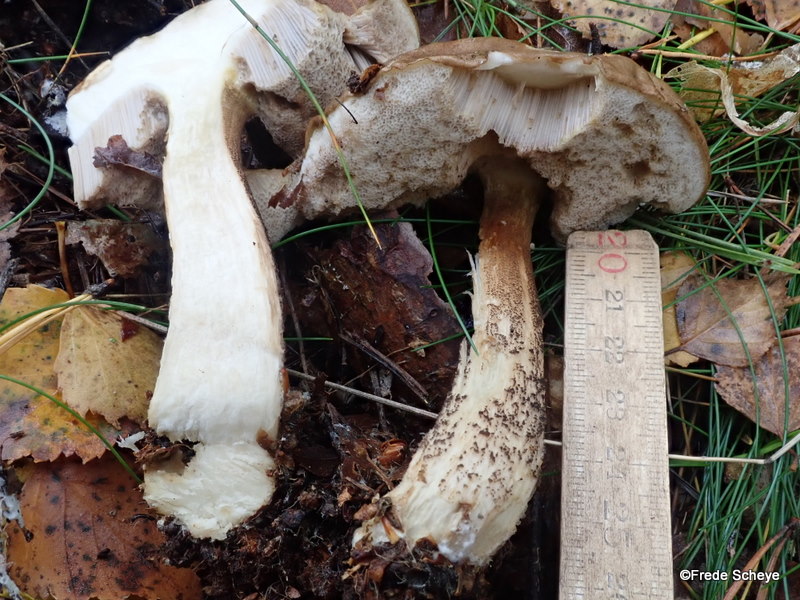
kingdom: Fungi
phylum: Basidiomycota
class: Agaricomycetes
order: Boletales
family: Boletaceae
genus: Leccinum
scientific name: Leccinum scabrum
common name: brun skælrørhat
